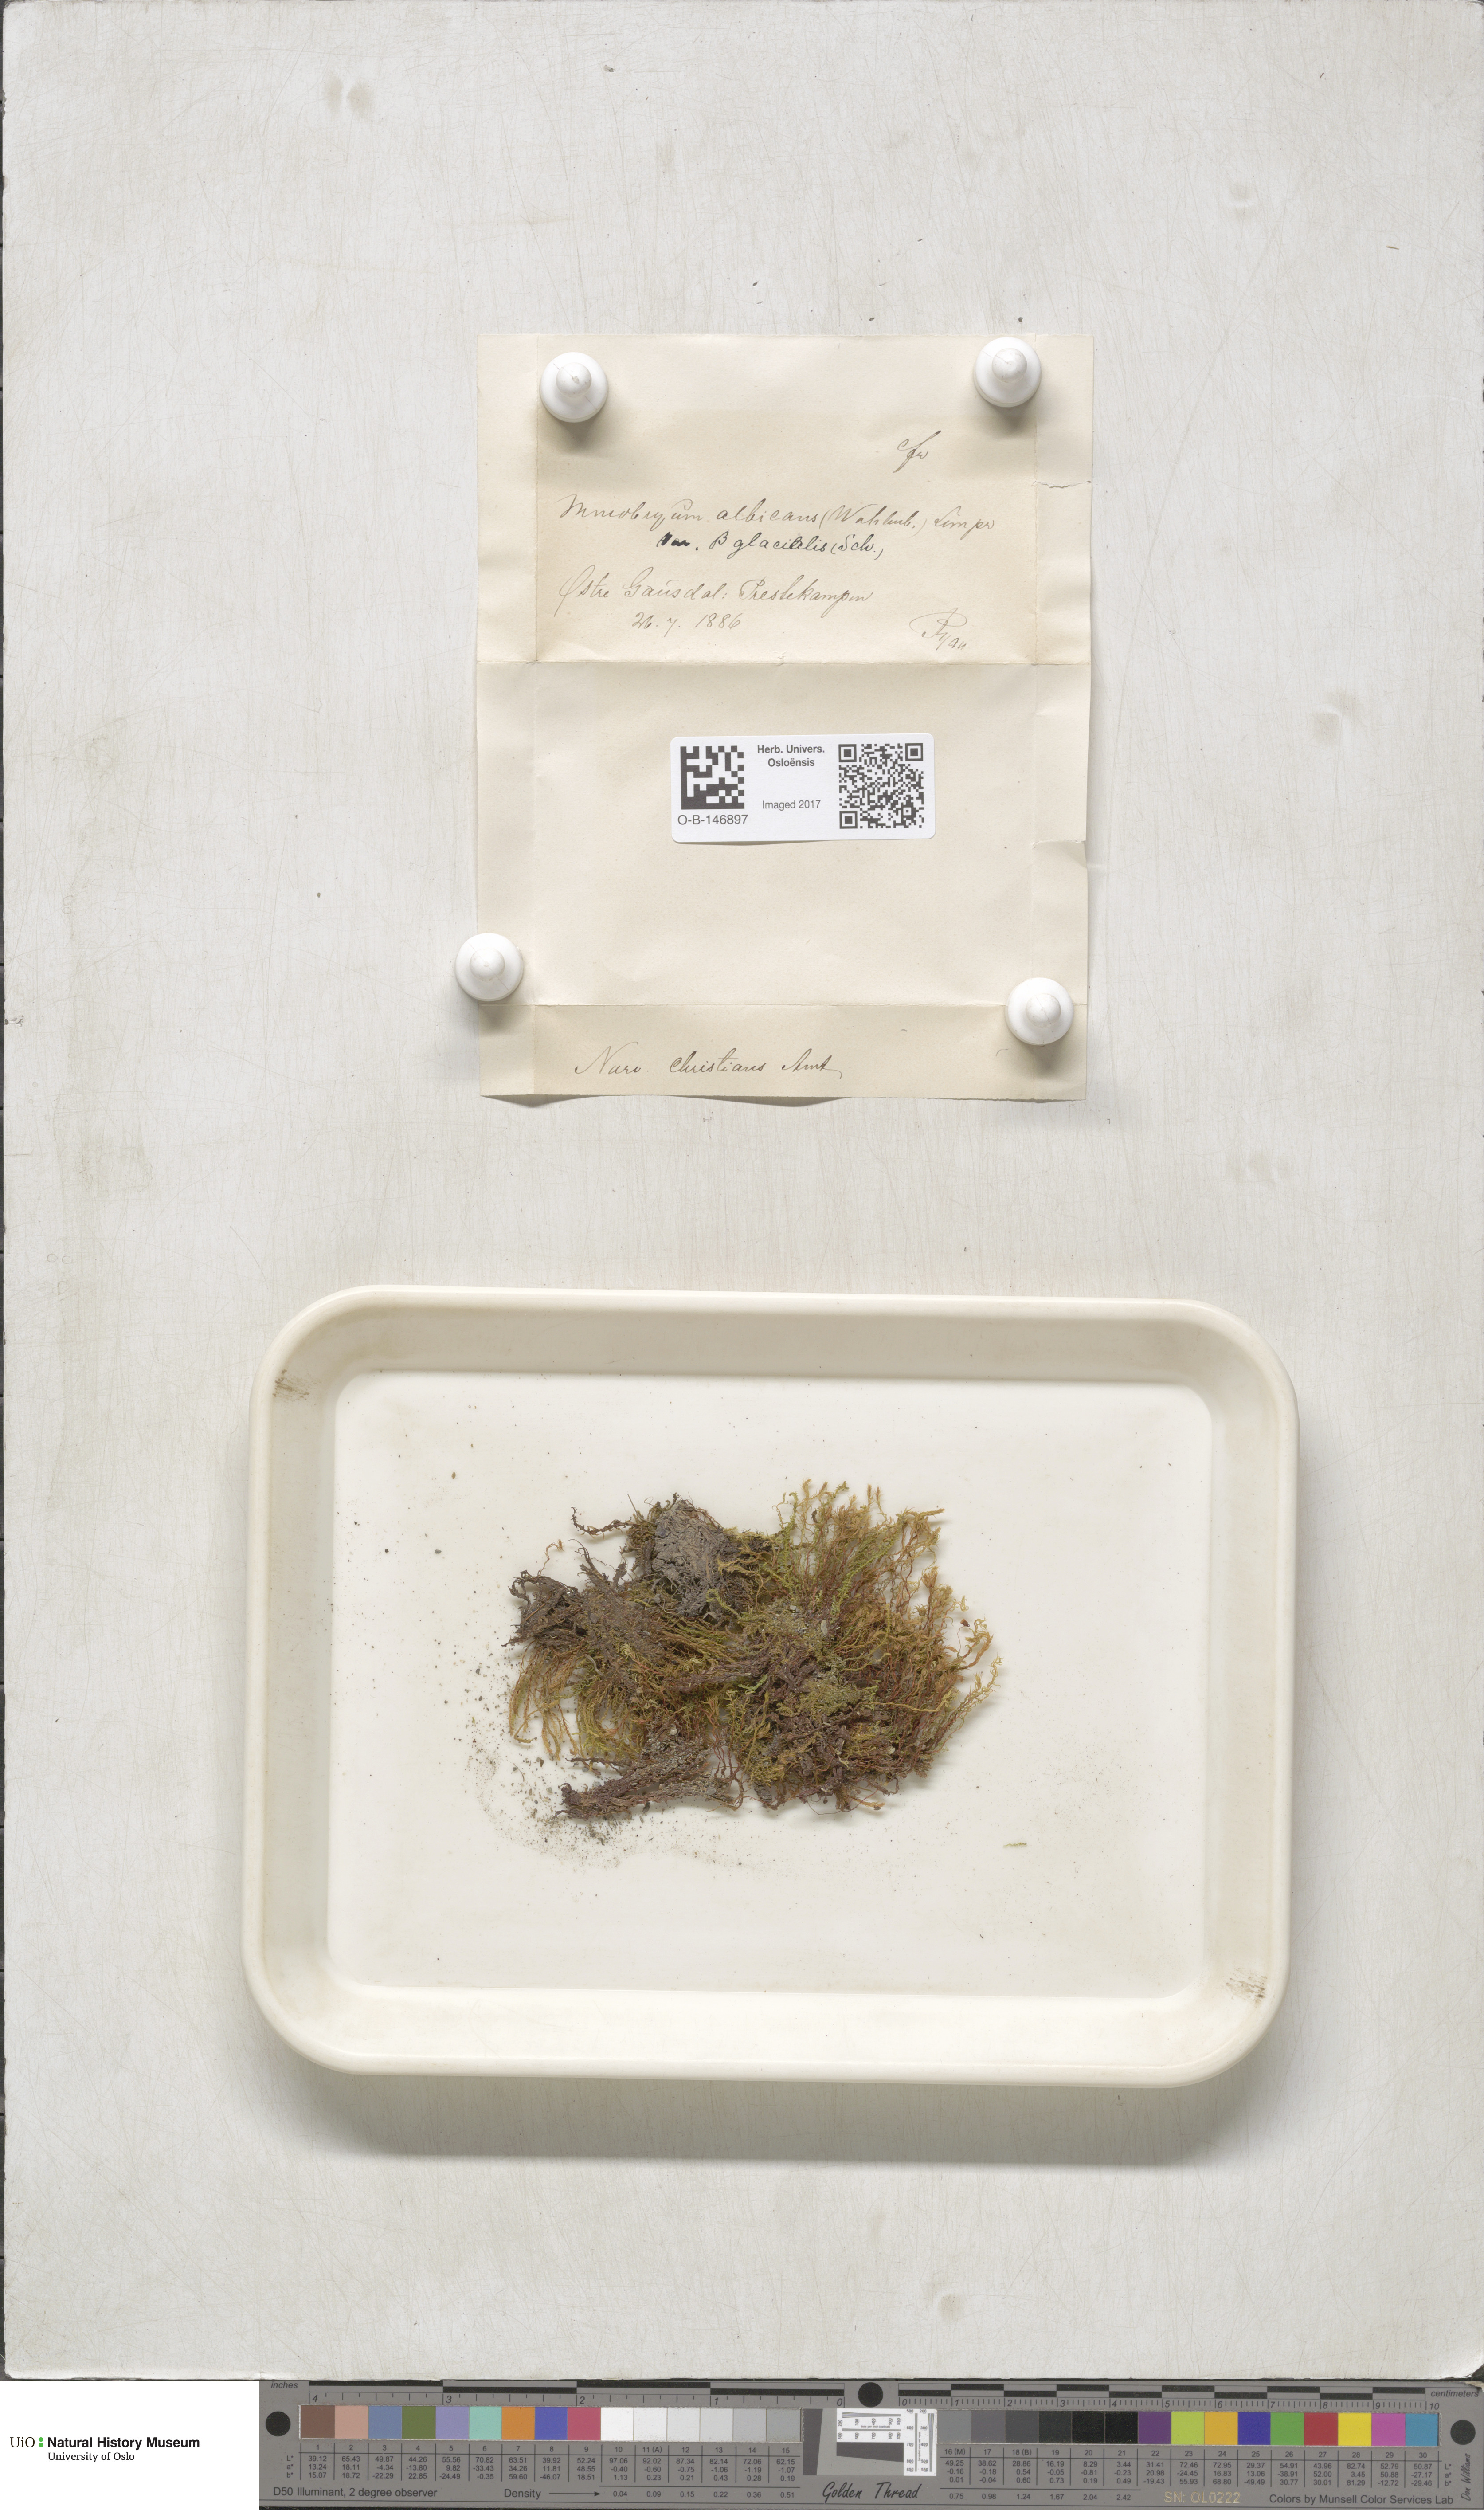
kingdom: Plantae
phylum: Bryophyta
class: Bryopsida
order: Bryales
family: Mniaceae
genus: Pohlia
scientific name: Pohlia wahlenbergii
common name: Wahlenberg's nodding moss
